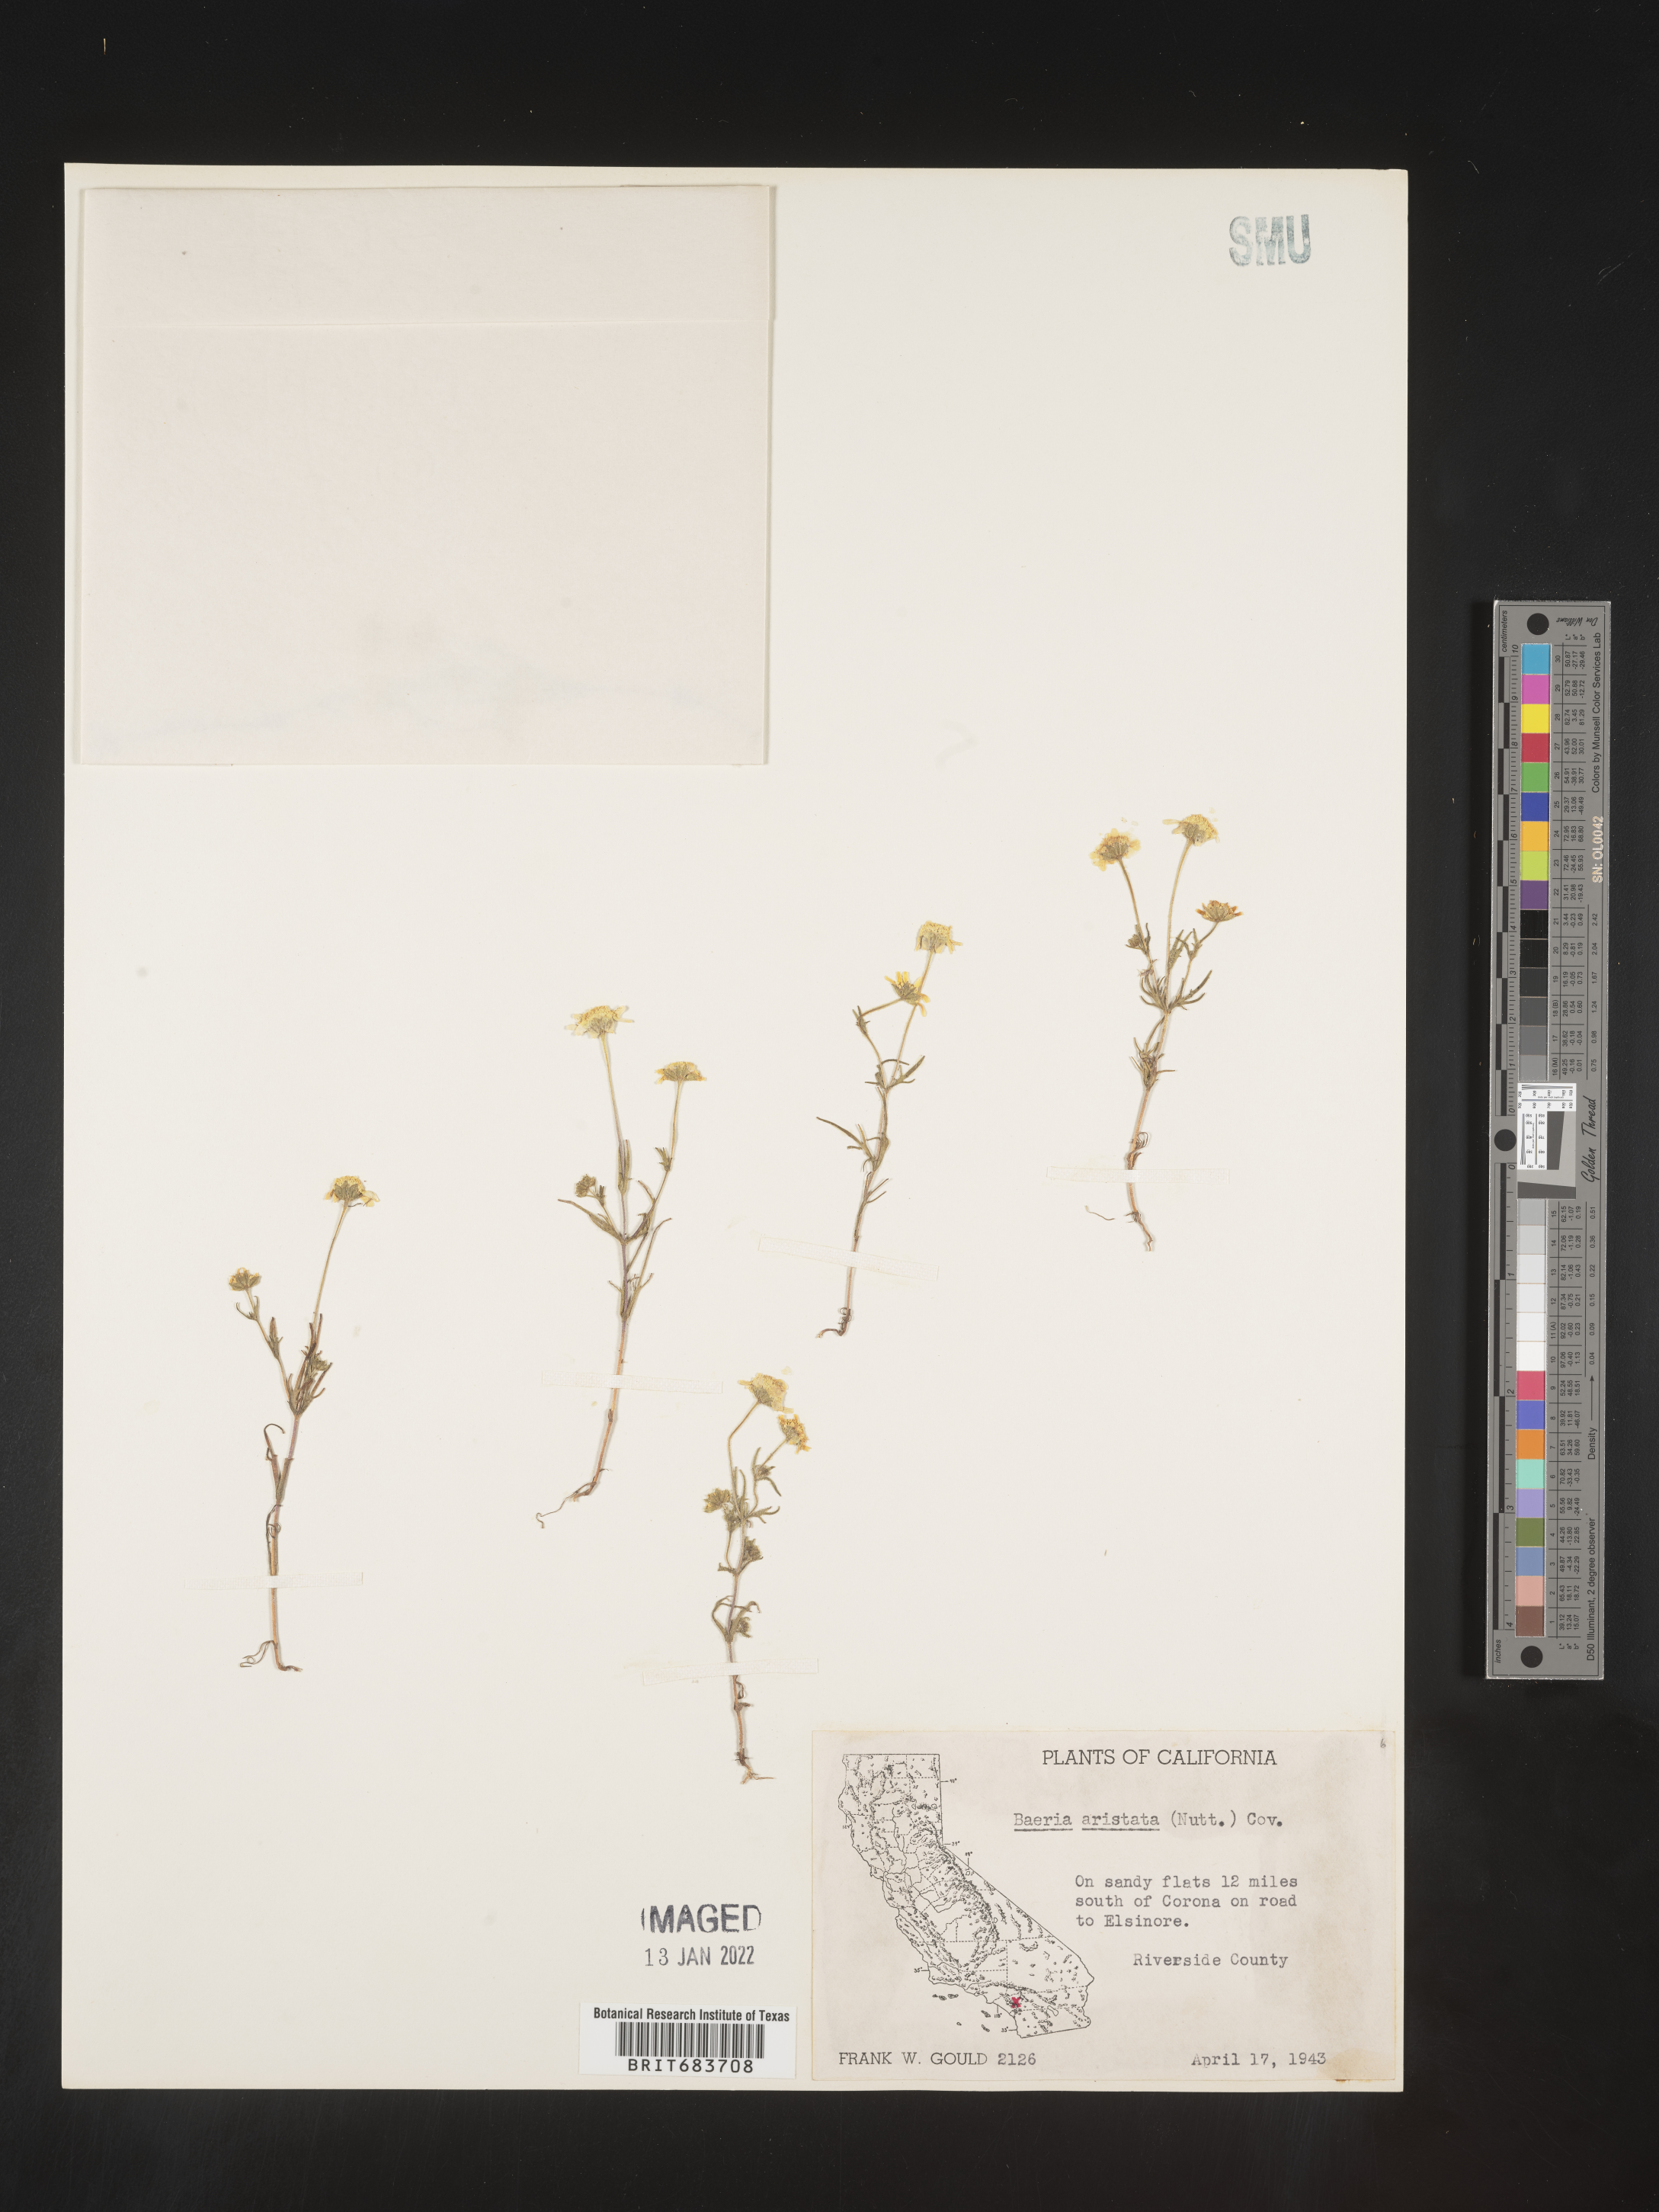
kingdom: Plantae
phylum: Tracheophyta
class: Magnoliopsida
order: Asterales
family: Asteraceae
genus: Lasthenia
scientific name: Lasthenia
